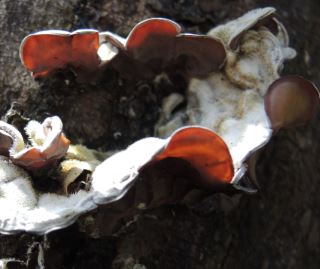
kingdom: Fungi
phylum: Basidiomycota
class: Agaricomycetes
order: Auriculariales
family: Auriculariaceae
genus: Auricularia
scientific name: Auricularia mesenterica
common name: håret judasøre
